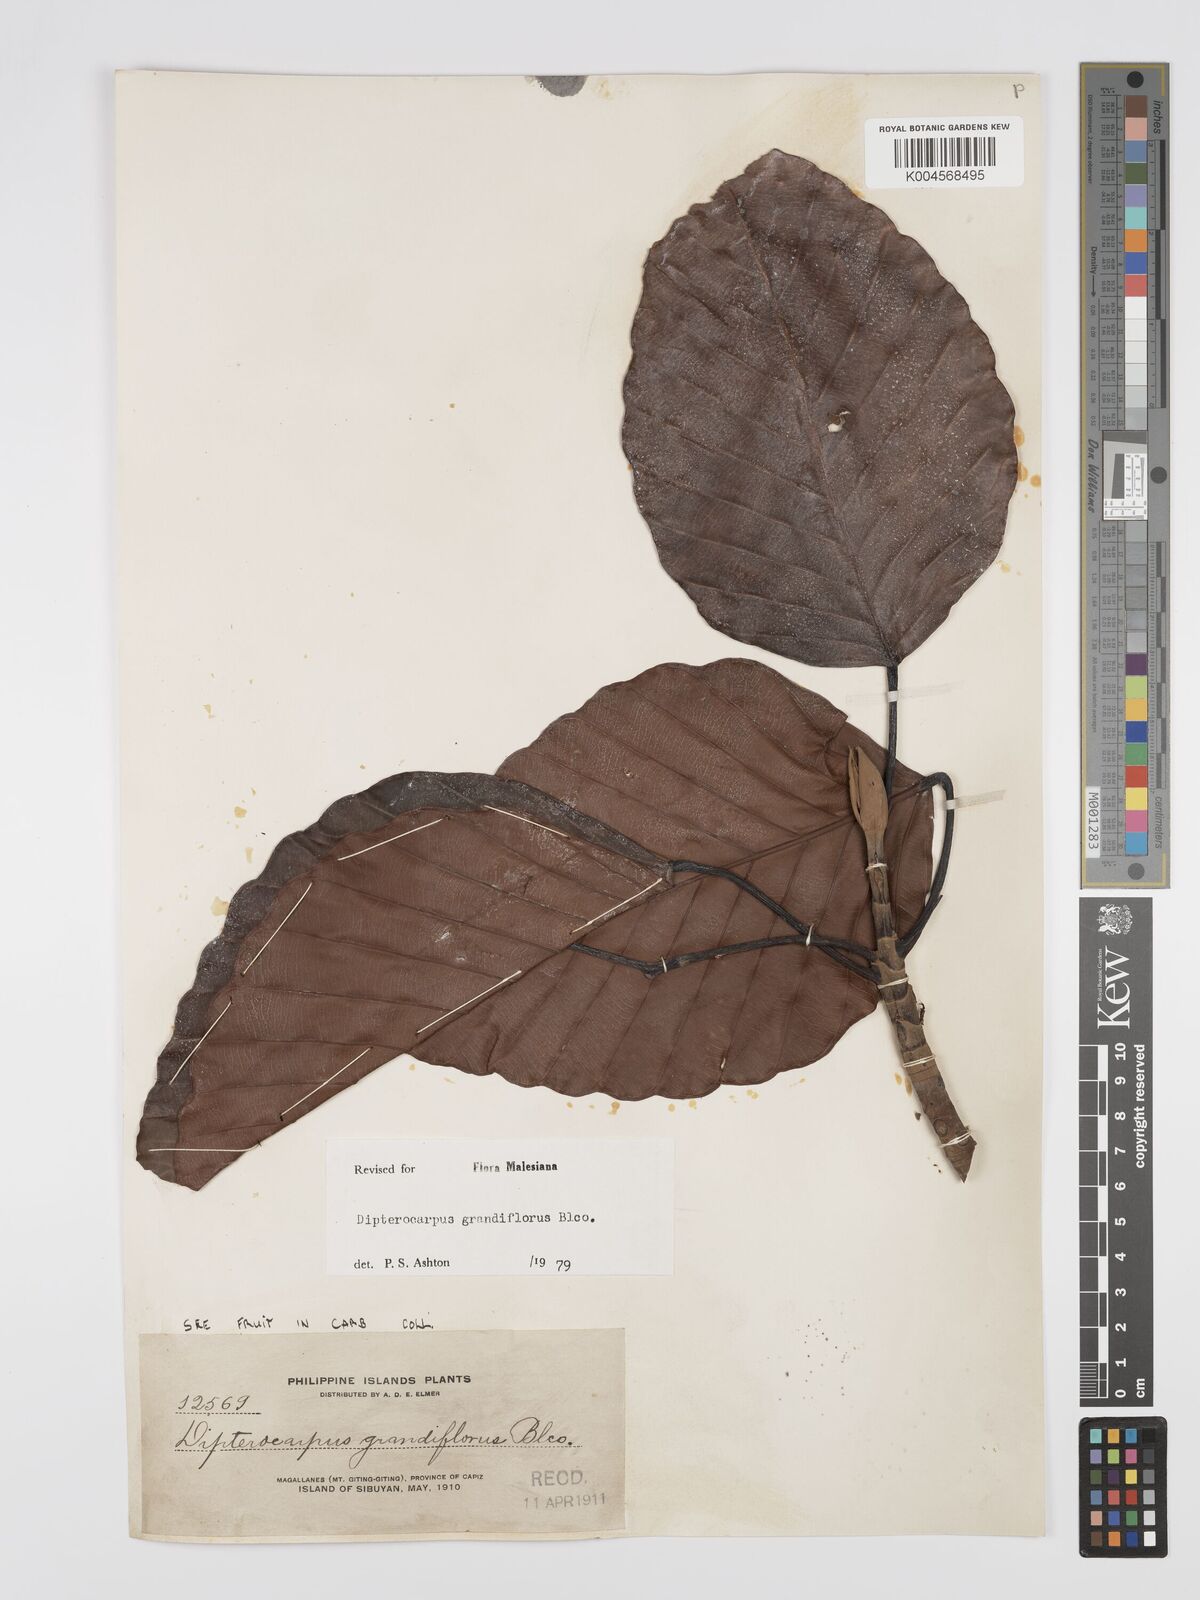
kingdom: Plantae
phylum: Tracheophyta
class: Magnoliopsida
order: Malvales
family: Dipterocarpaceae
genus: Dipterocarpus
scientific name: Dipterocarpus grandiflorus
